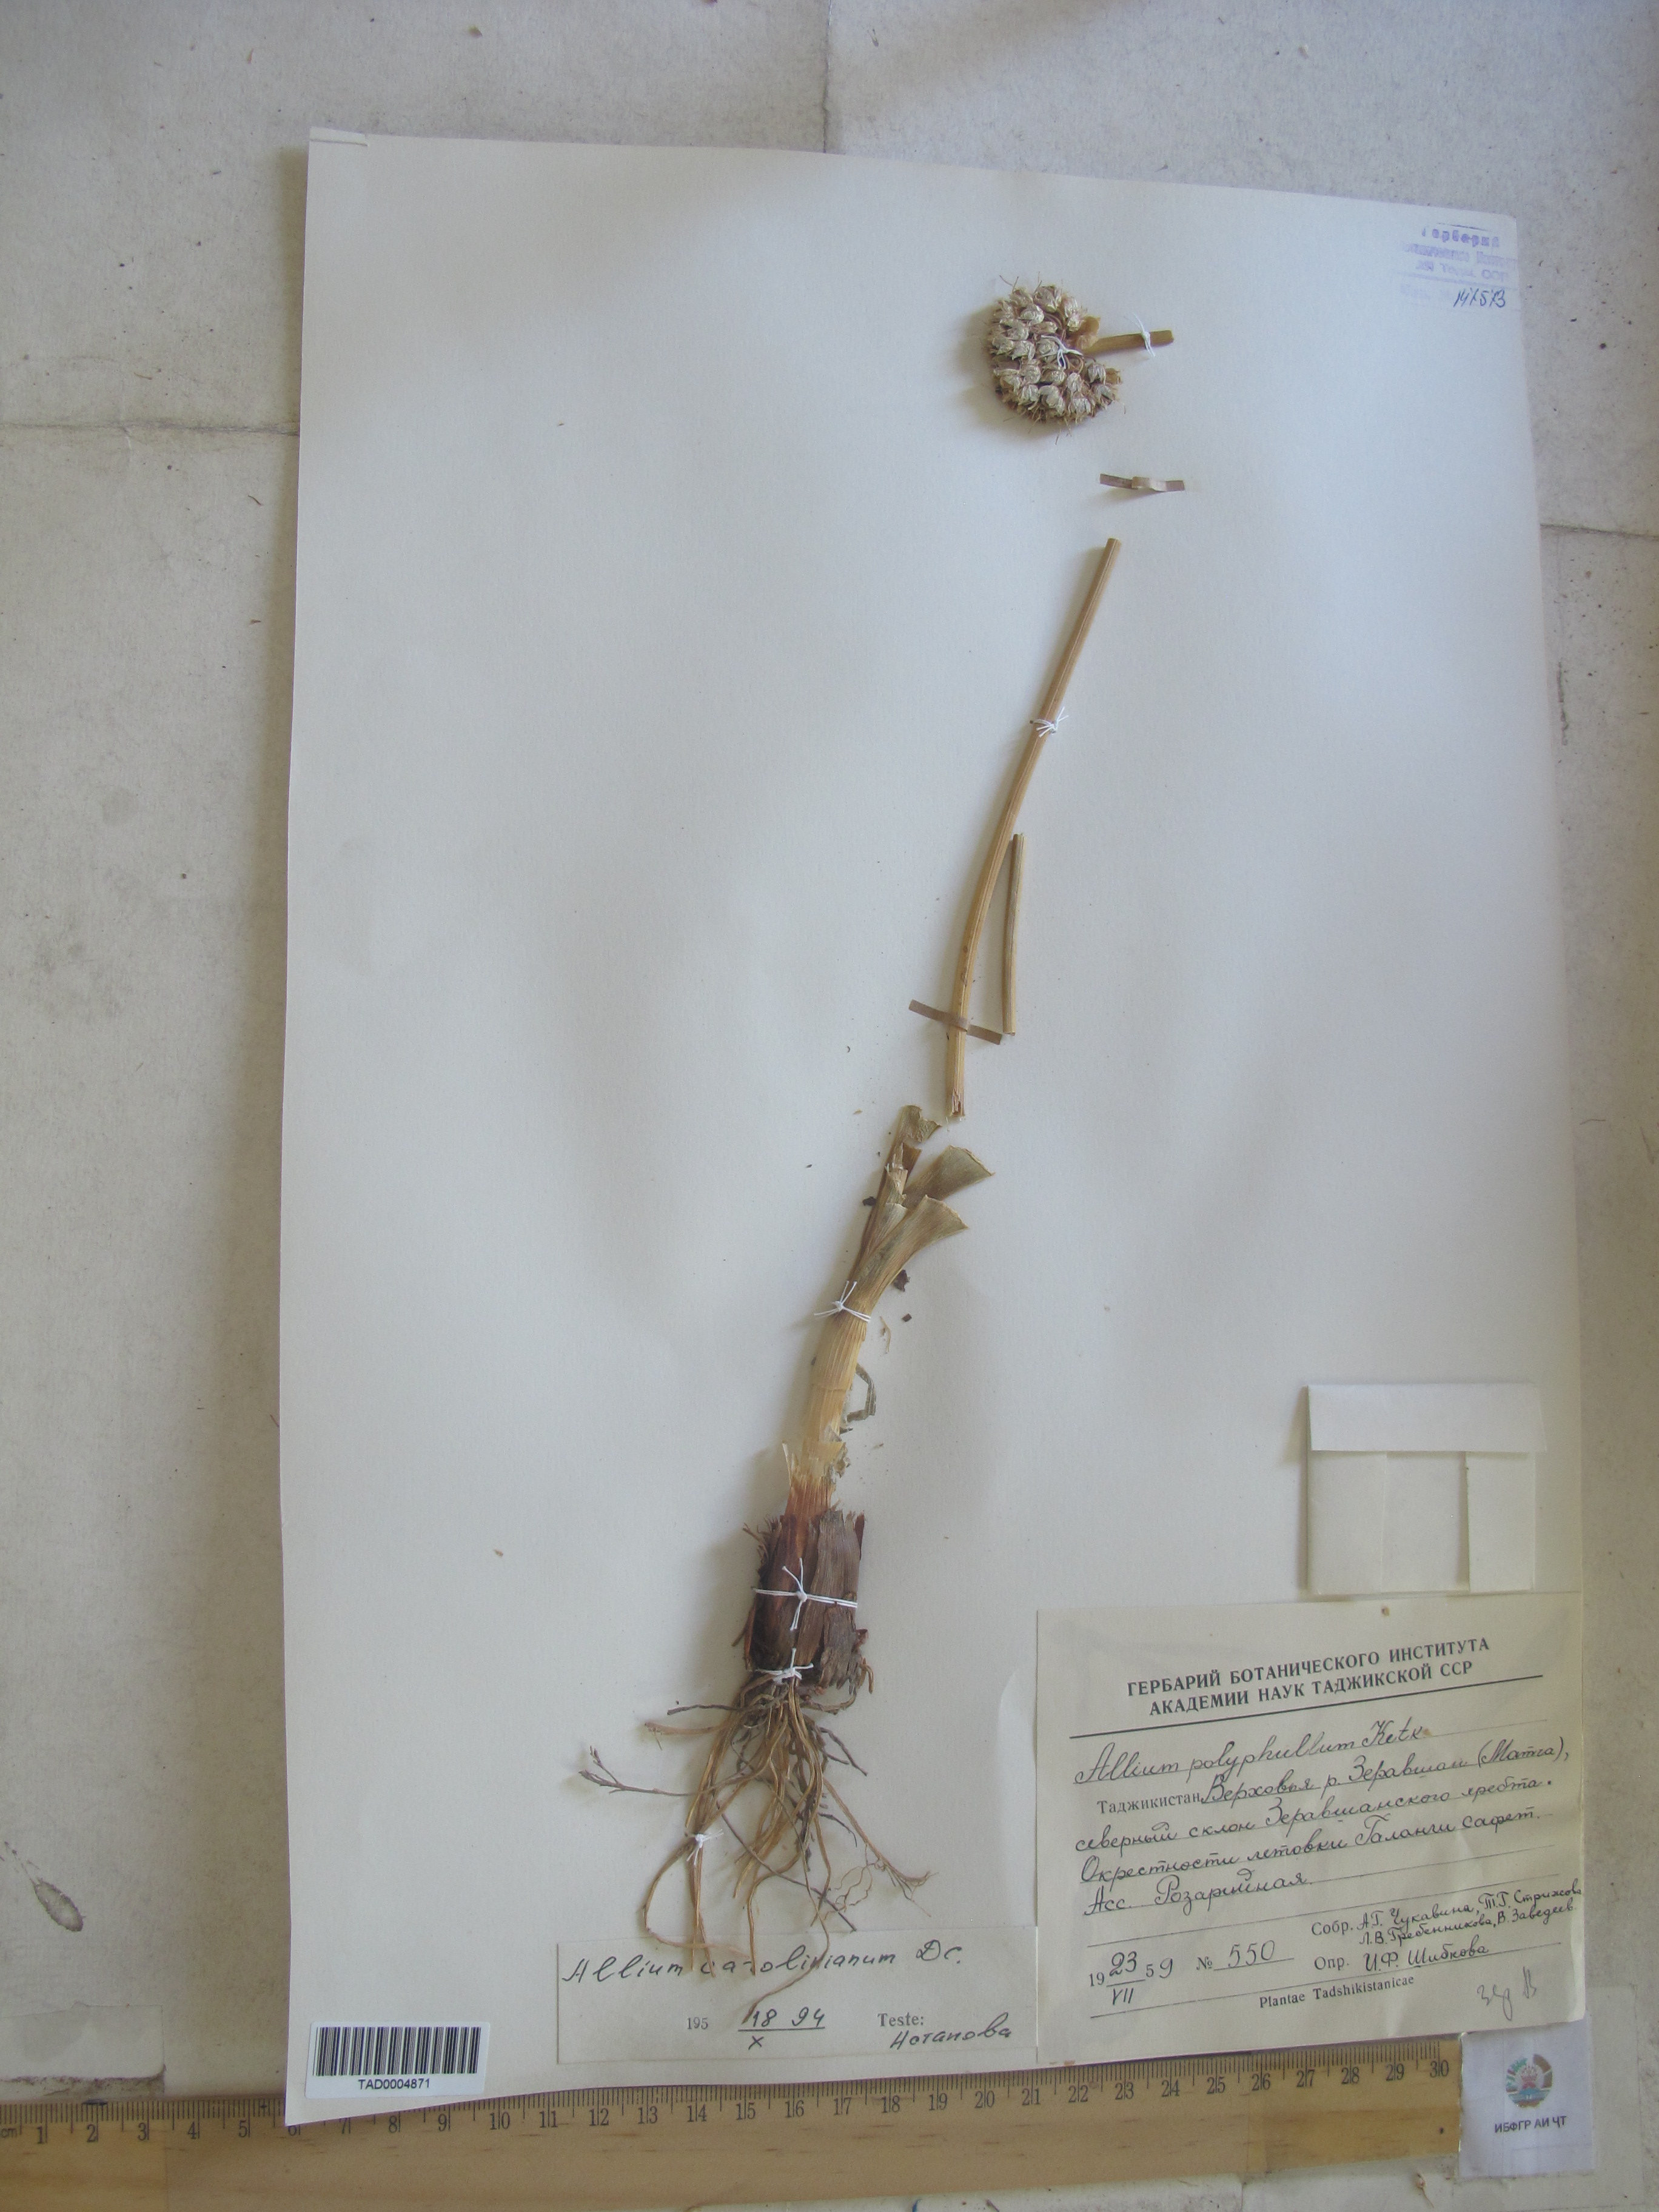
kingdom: Plantae
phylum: Tracheophyta
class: Liliopsida
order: Asparagales
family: Amaryllidaceae
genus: Allium
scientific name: Allium carolinianum
